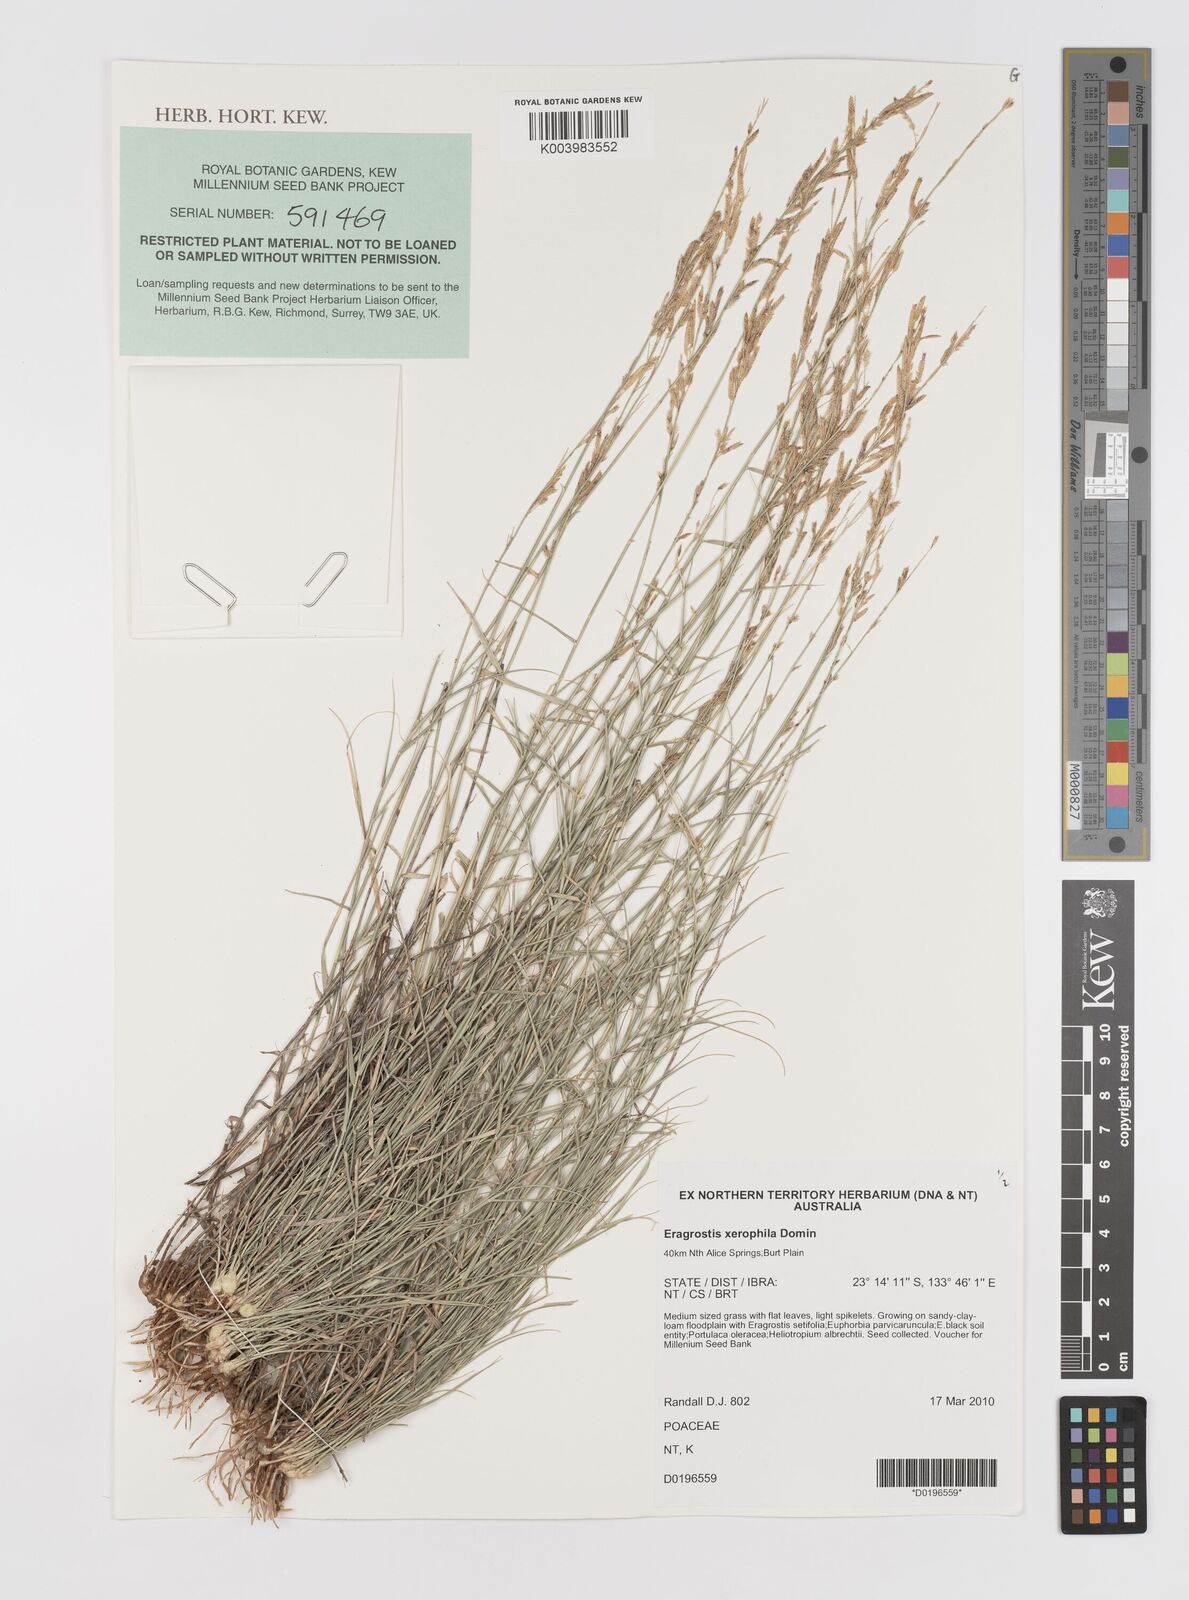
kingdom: Plantae
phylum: Tracheophyta
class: Liliopsida
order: Poales
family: Poaceae
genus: Eragrostis
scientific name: Eragrostis xerophila
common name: Wire wandarrie grass
